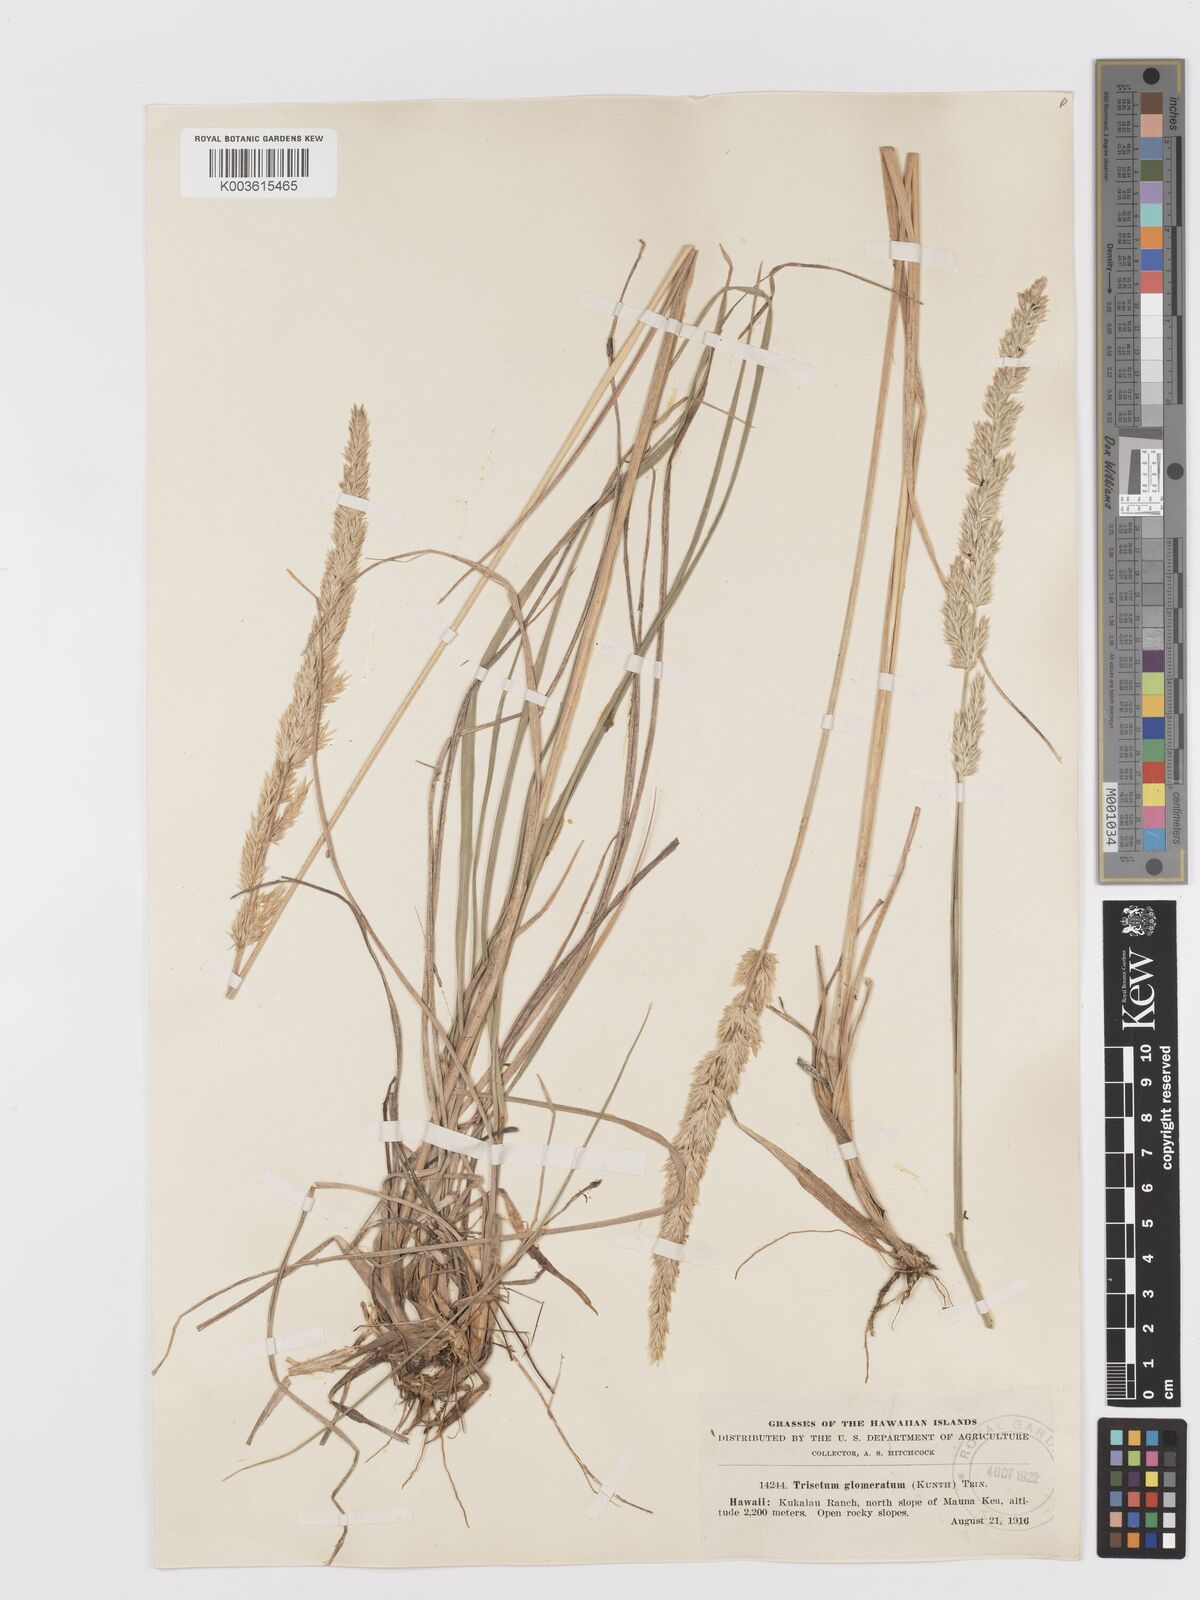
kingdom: Plantae
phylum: Tracheophyta
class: Liliopsida
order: Poales
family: Poaceae
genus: Trisetum
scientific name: Trisetum glomeratum
